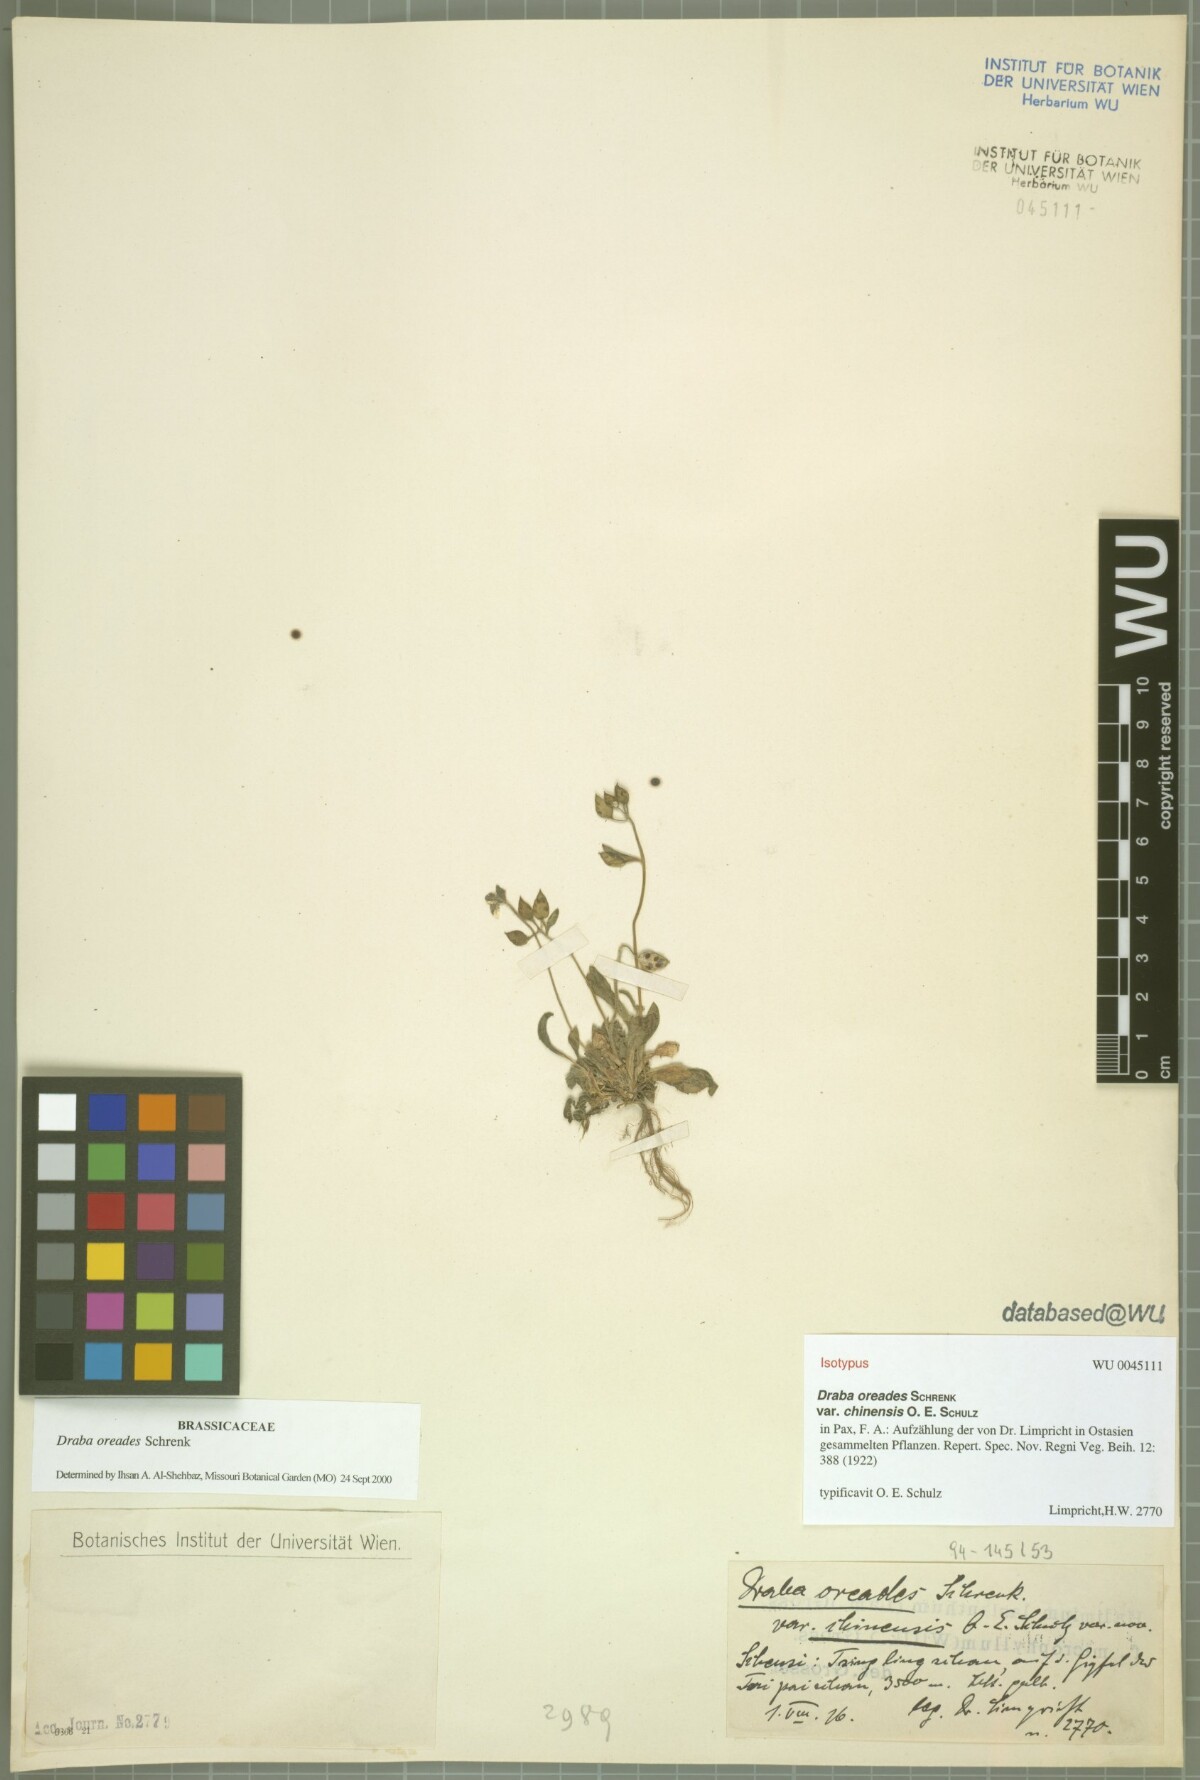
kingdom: Plantae
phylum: Tracheophyta
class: Magnoliopsida
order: Brassicales
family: Brassicaceae
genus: Draba
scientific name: Draba oreades
